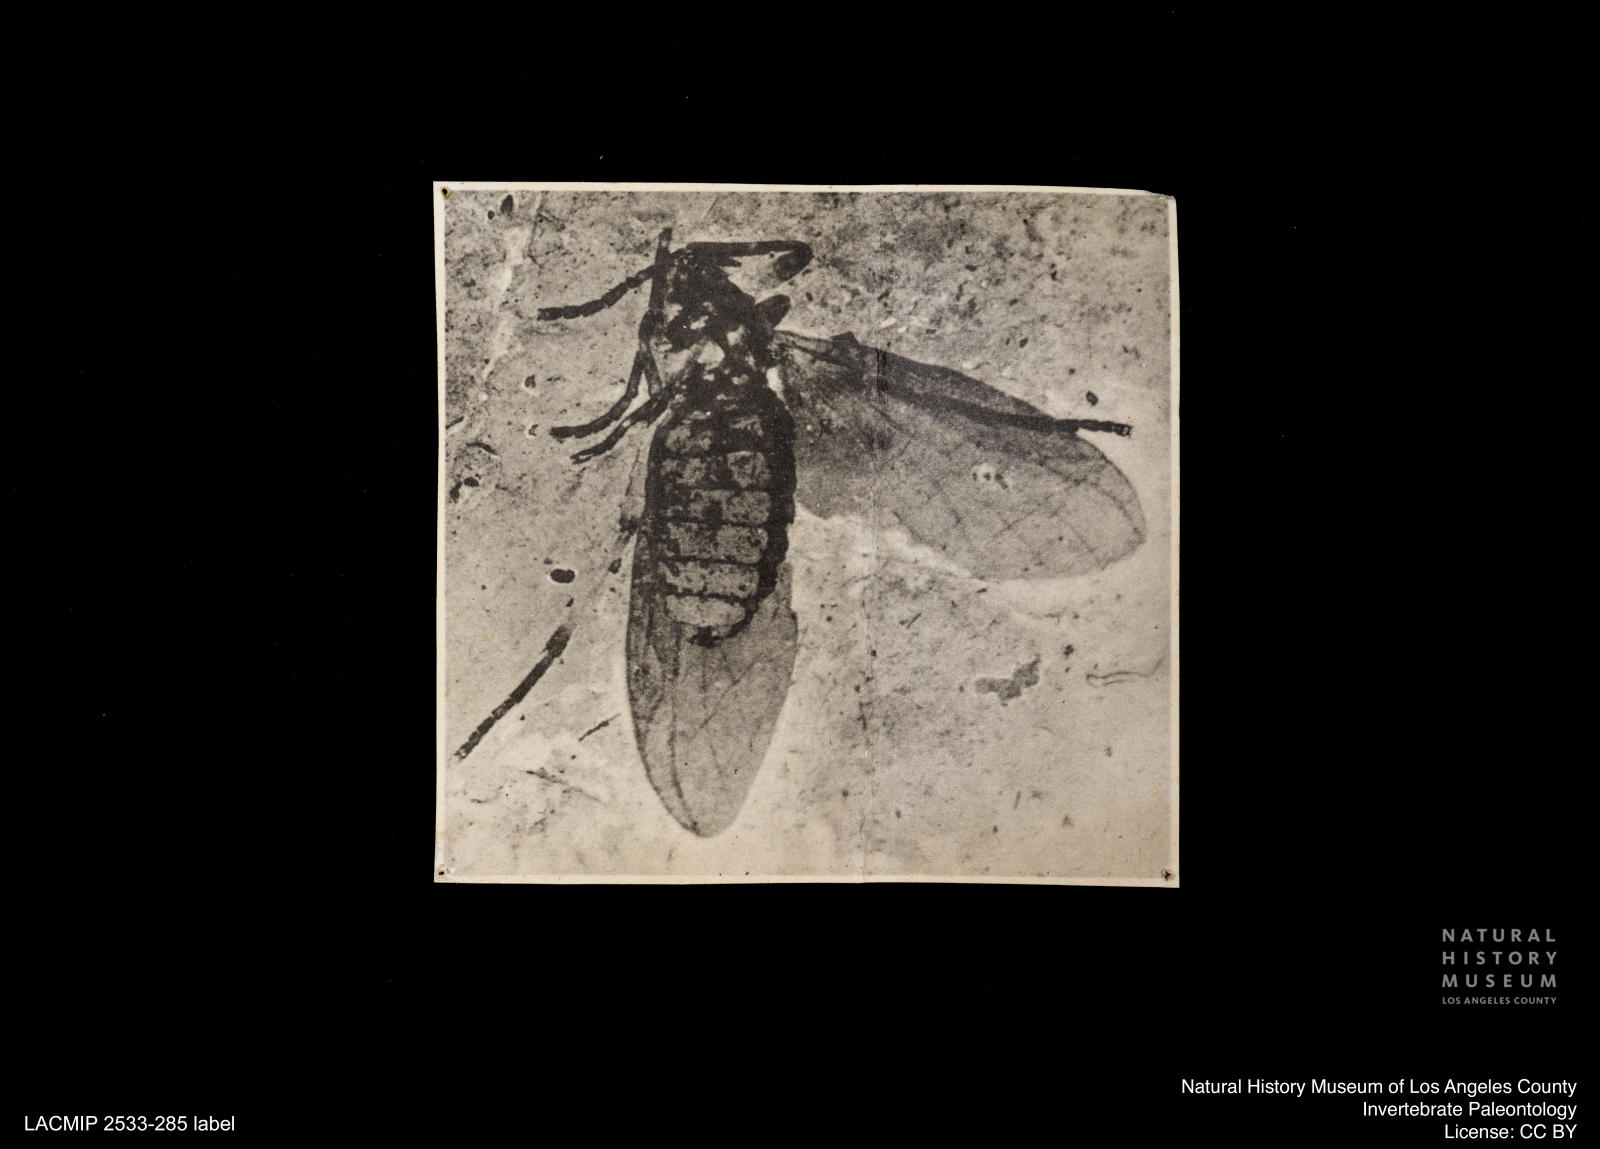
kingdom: Animalia
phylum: Arthropoda
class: Insecta
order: Diptera
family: Bibionidae
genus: Plecia
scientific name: Plecia proserpina
